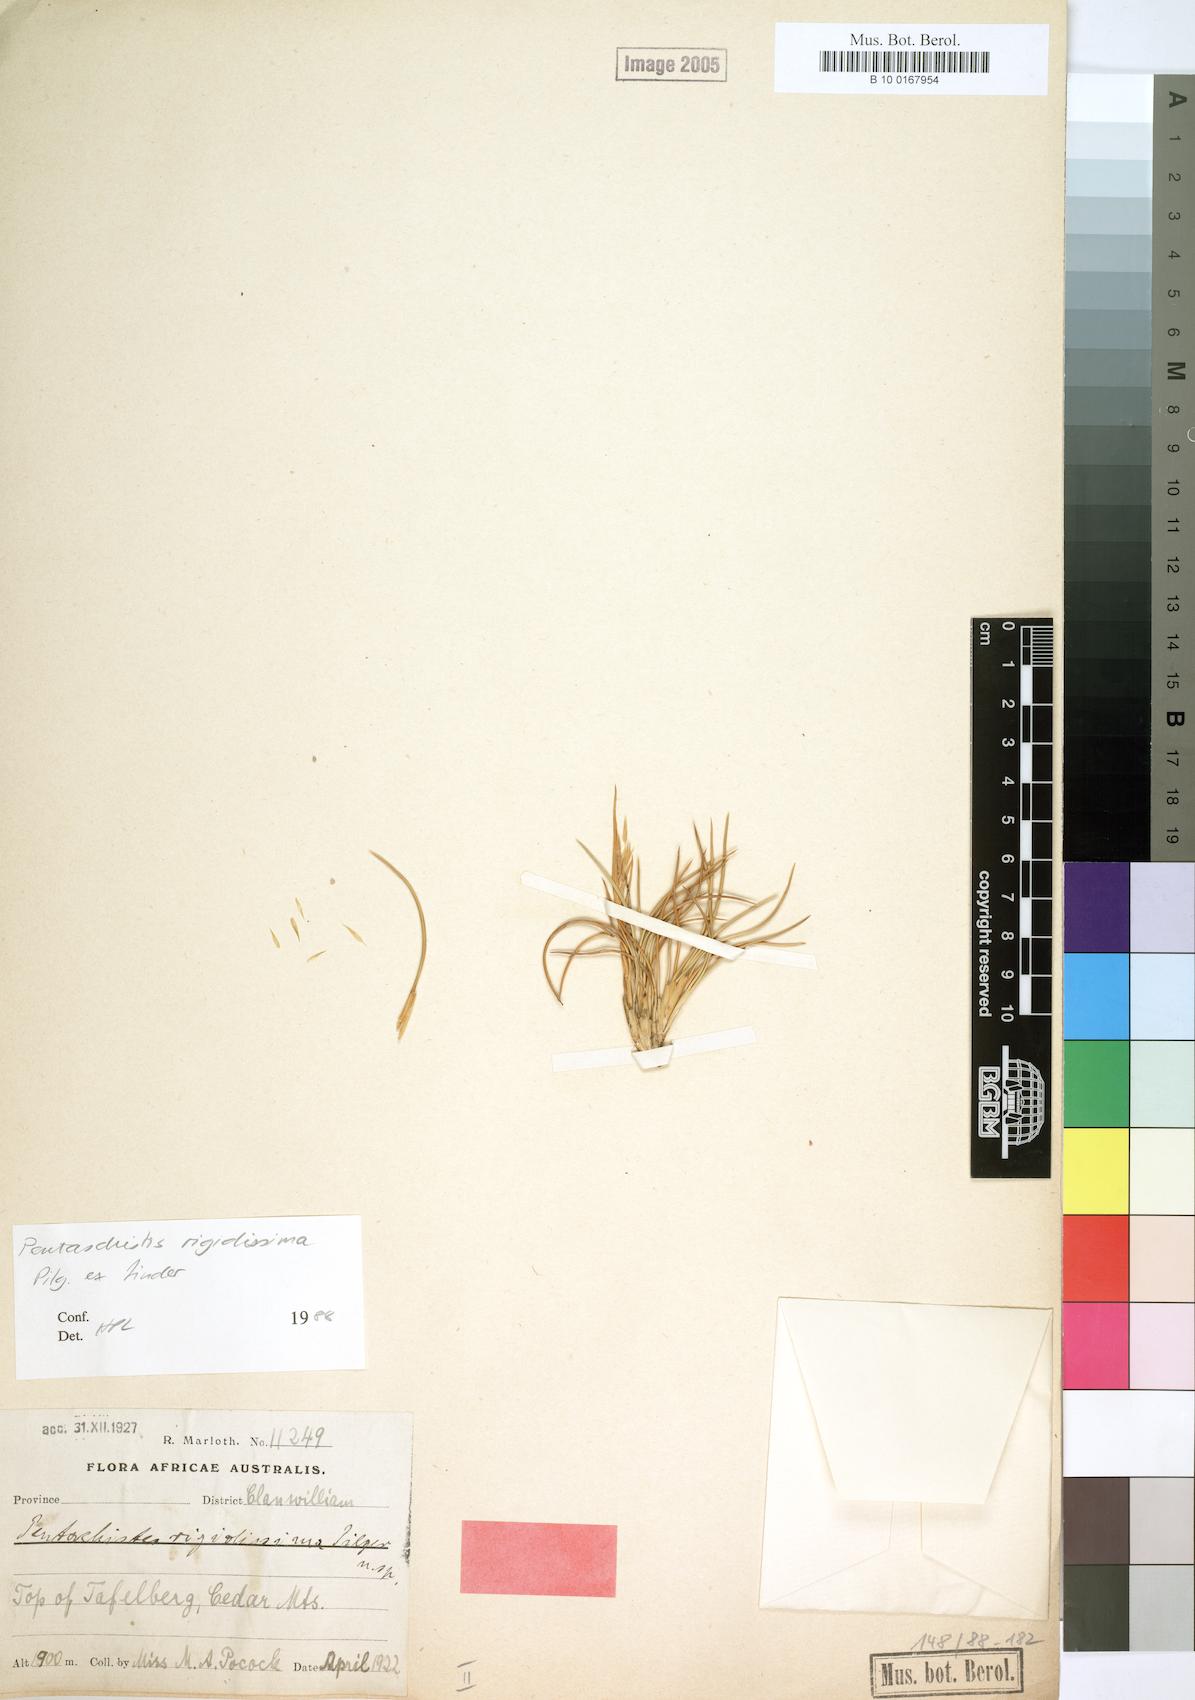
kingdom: Plantae
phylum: Tracheophyta
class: Liliopsida
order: Poales
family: Poaceae
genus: Pentameris
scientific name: Pentameris rigidissima
